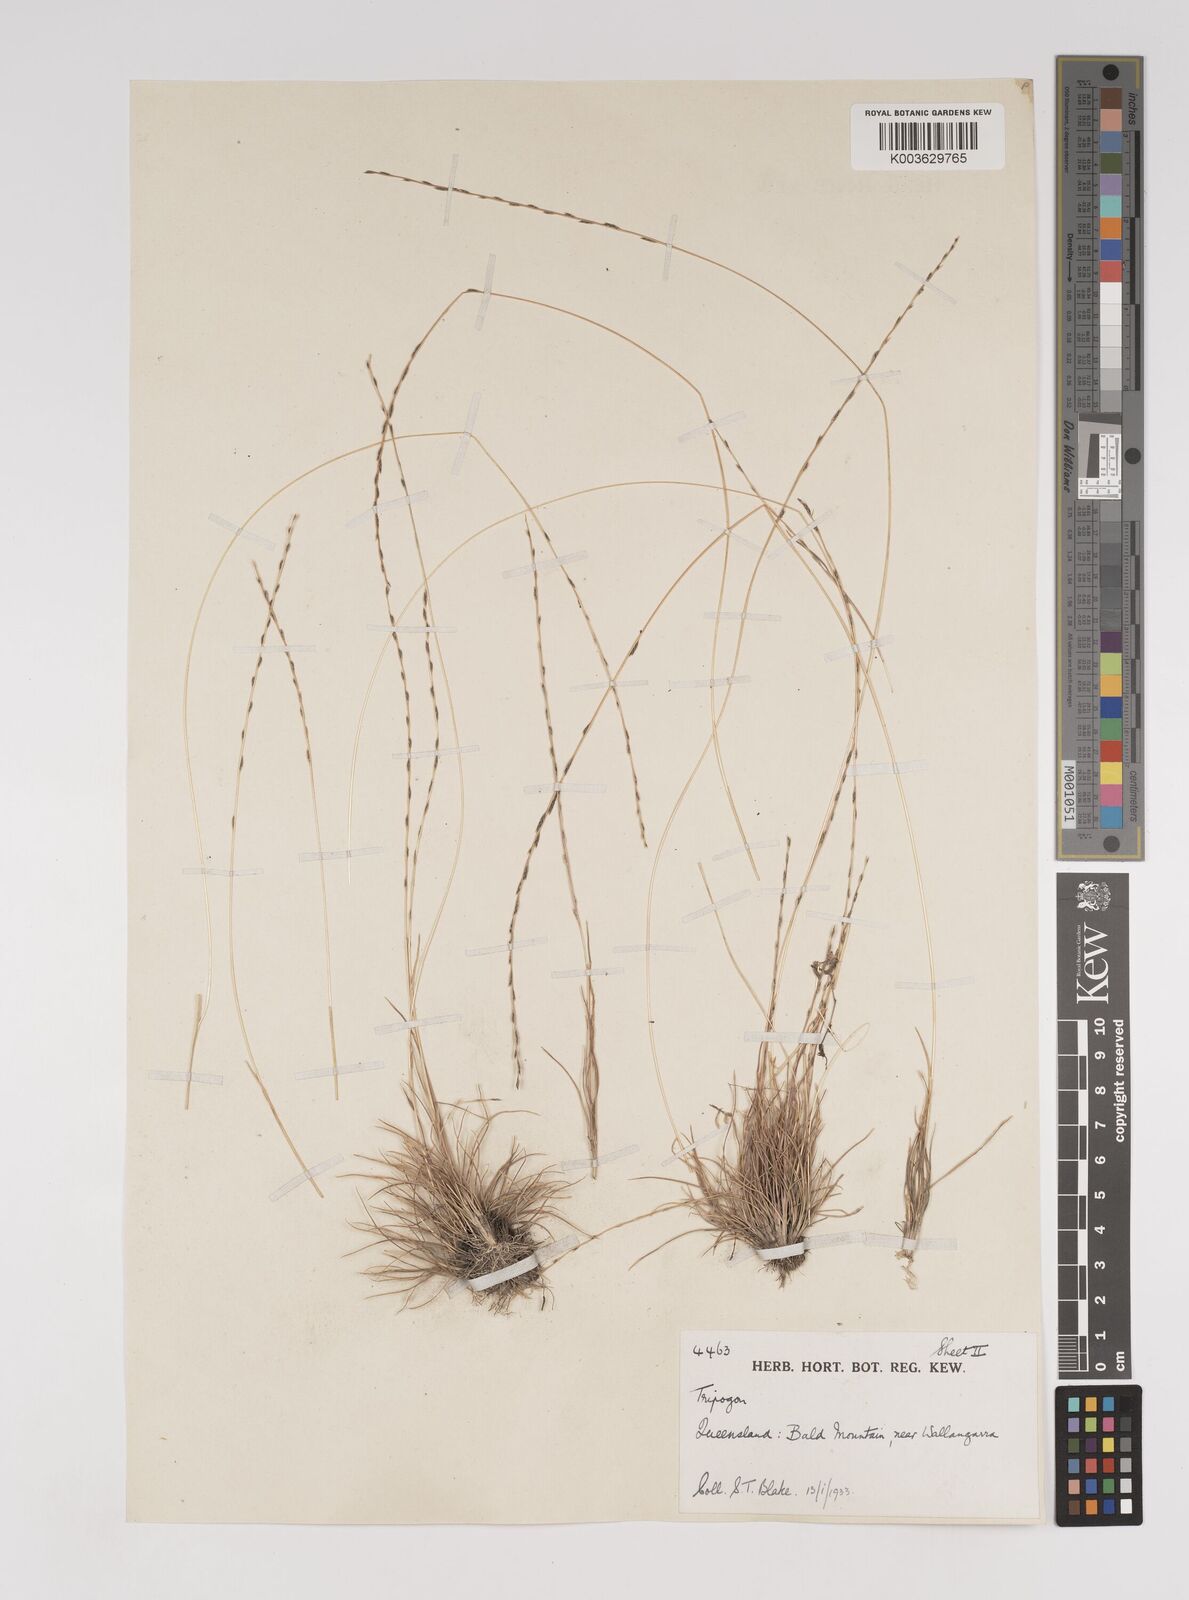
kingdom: Plantae
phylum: Tracheophyta
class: Liliopsida
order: Poales
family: Poaceae
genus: Tripogonella
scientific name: Tripogonella loliiformis
